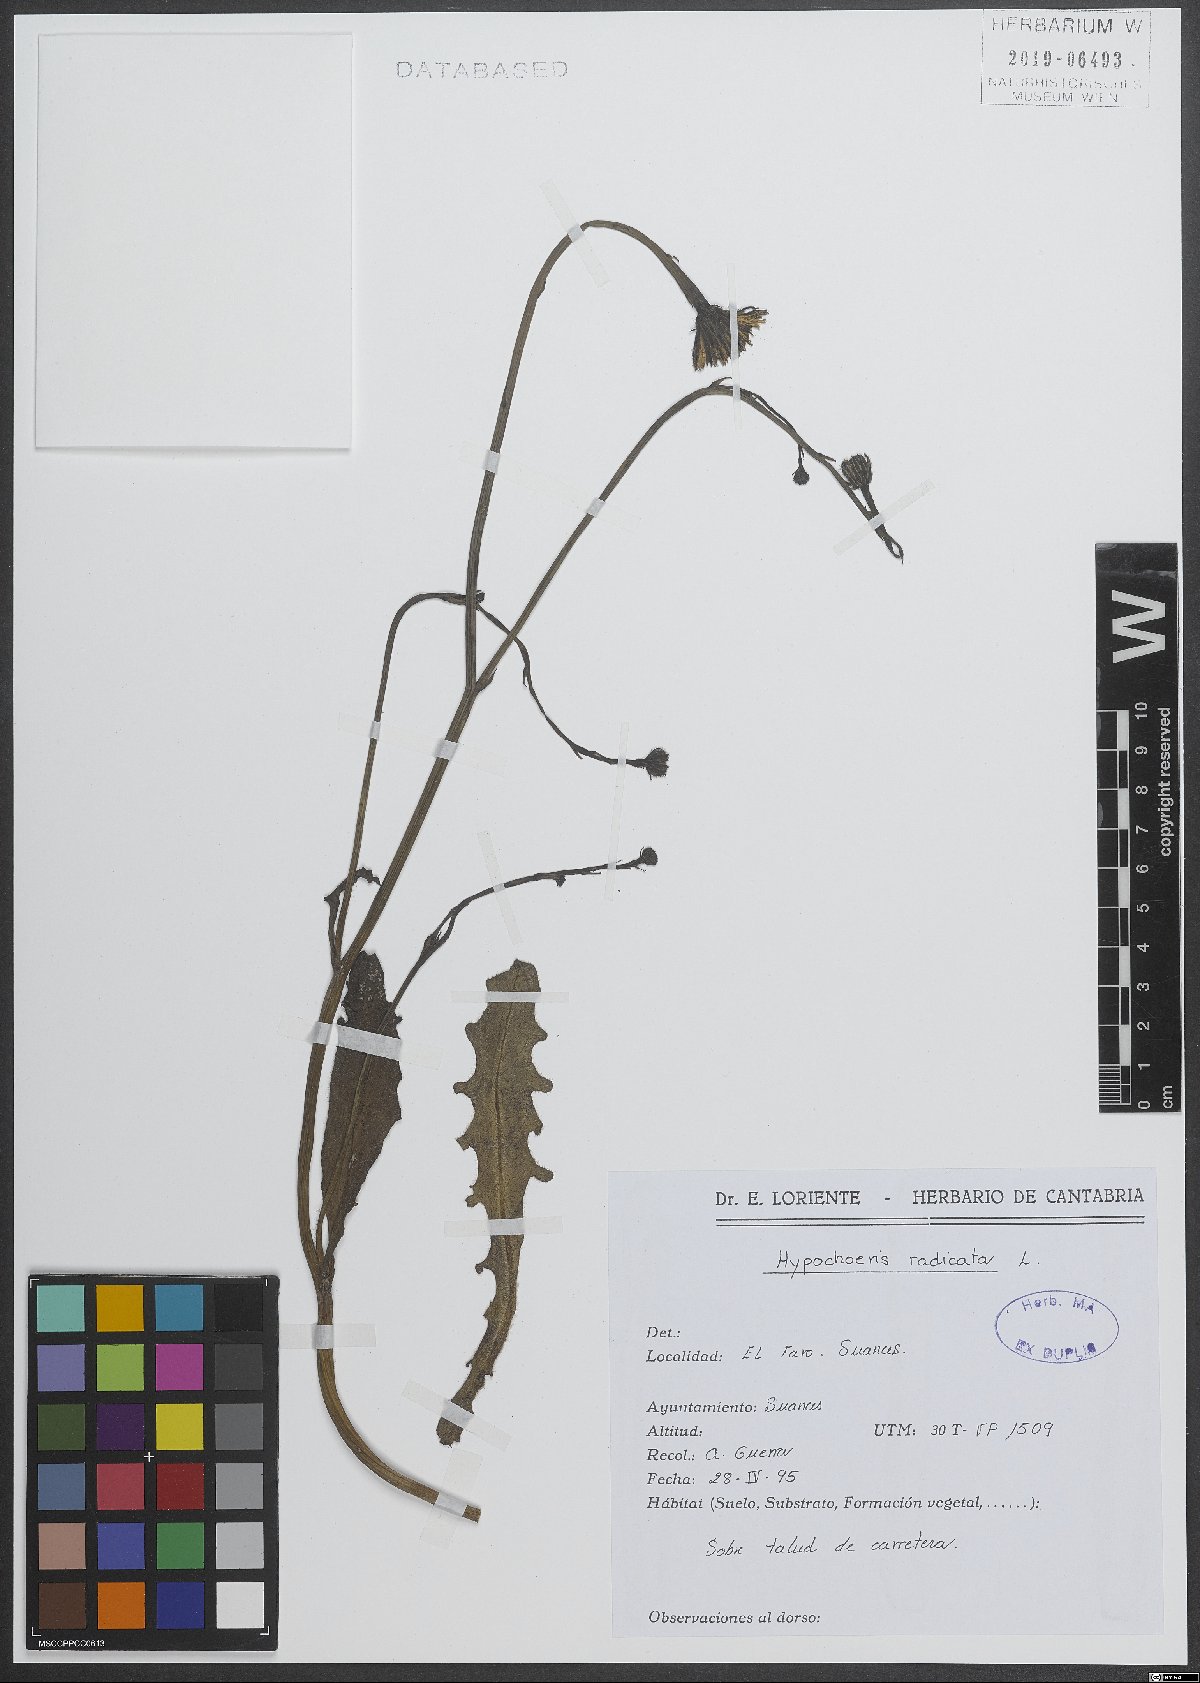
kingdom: Plantae
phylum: Tracheophyta
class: Magnoliopsida
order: Asterales
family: Asteraceae
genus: Hypochoeris
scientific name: Hypochoeris radicata
